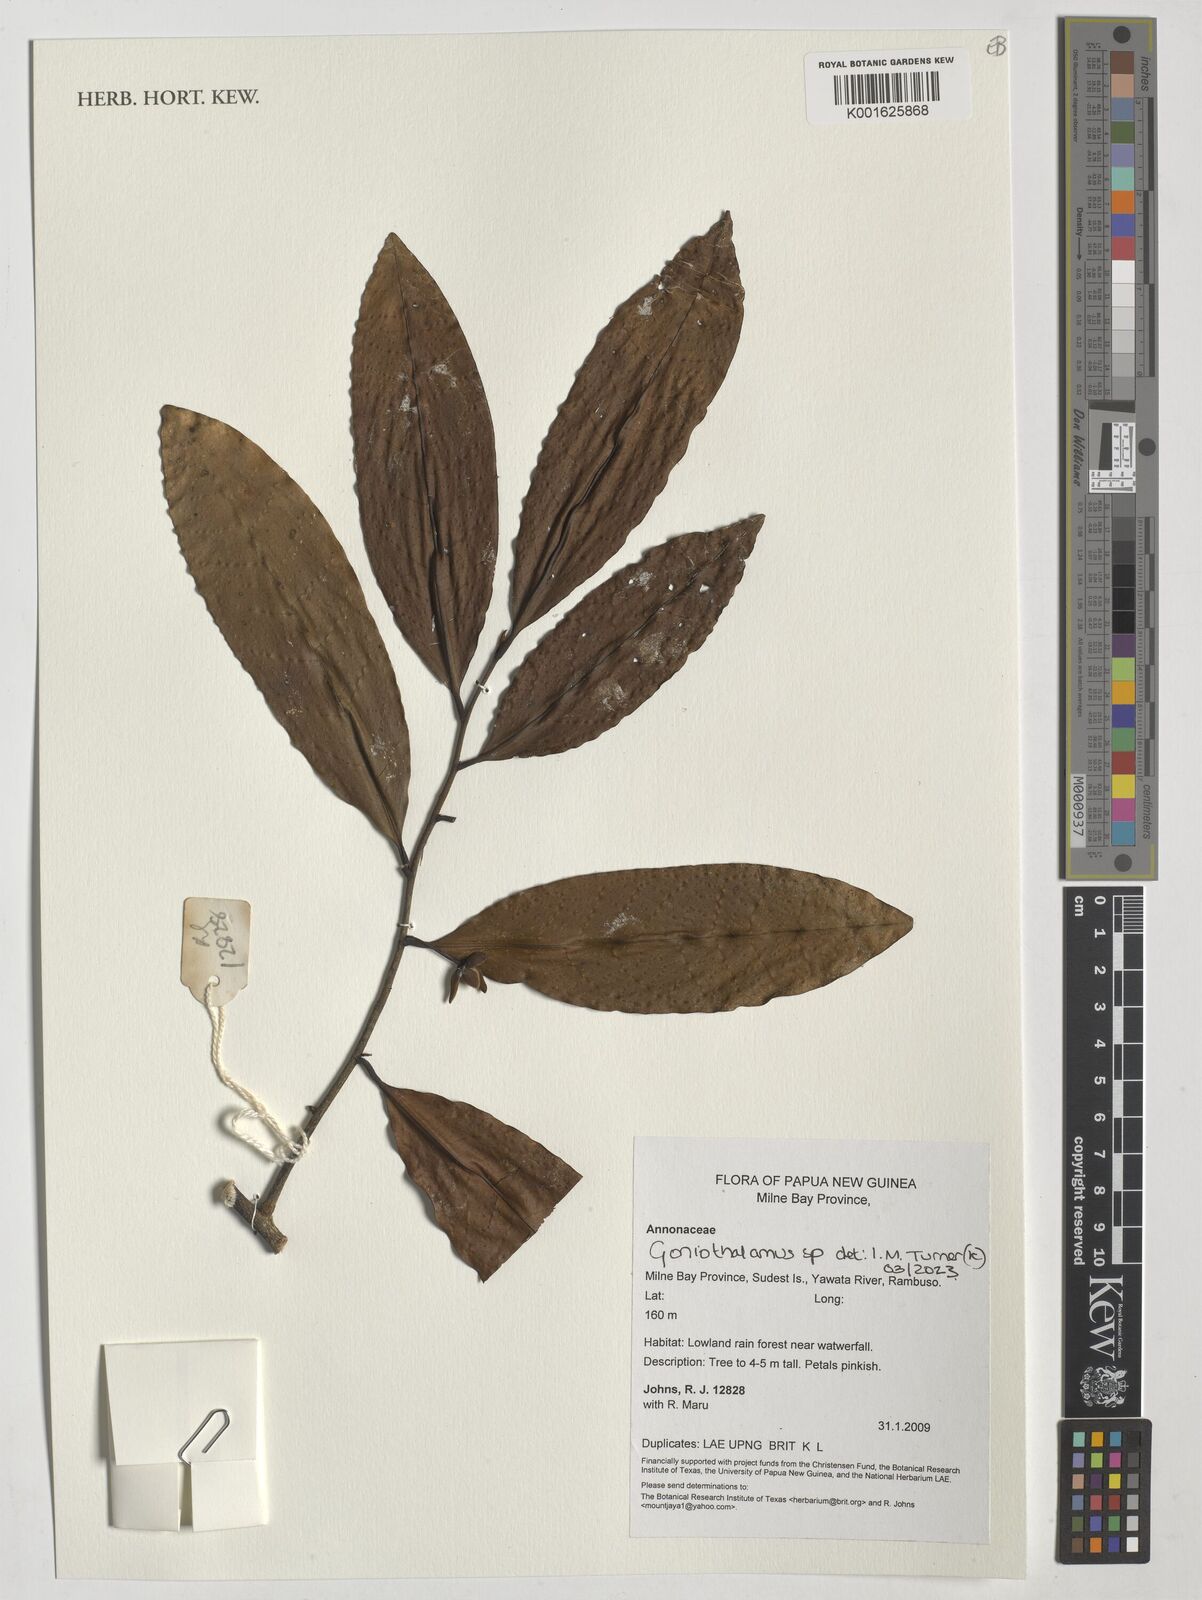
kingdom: Plantae
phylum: Tracheophyta
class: Magnoliopsida
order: Magnoliales
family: Annonaceae
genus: Goniothalamus
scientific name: Goniothalamus
